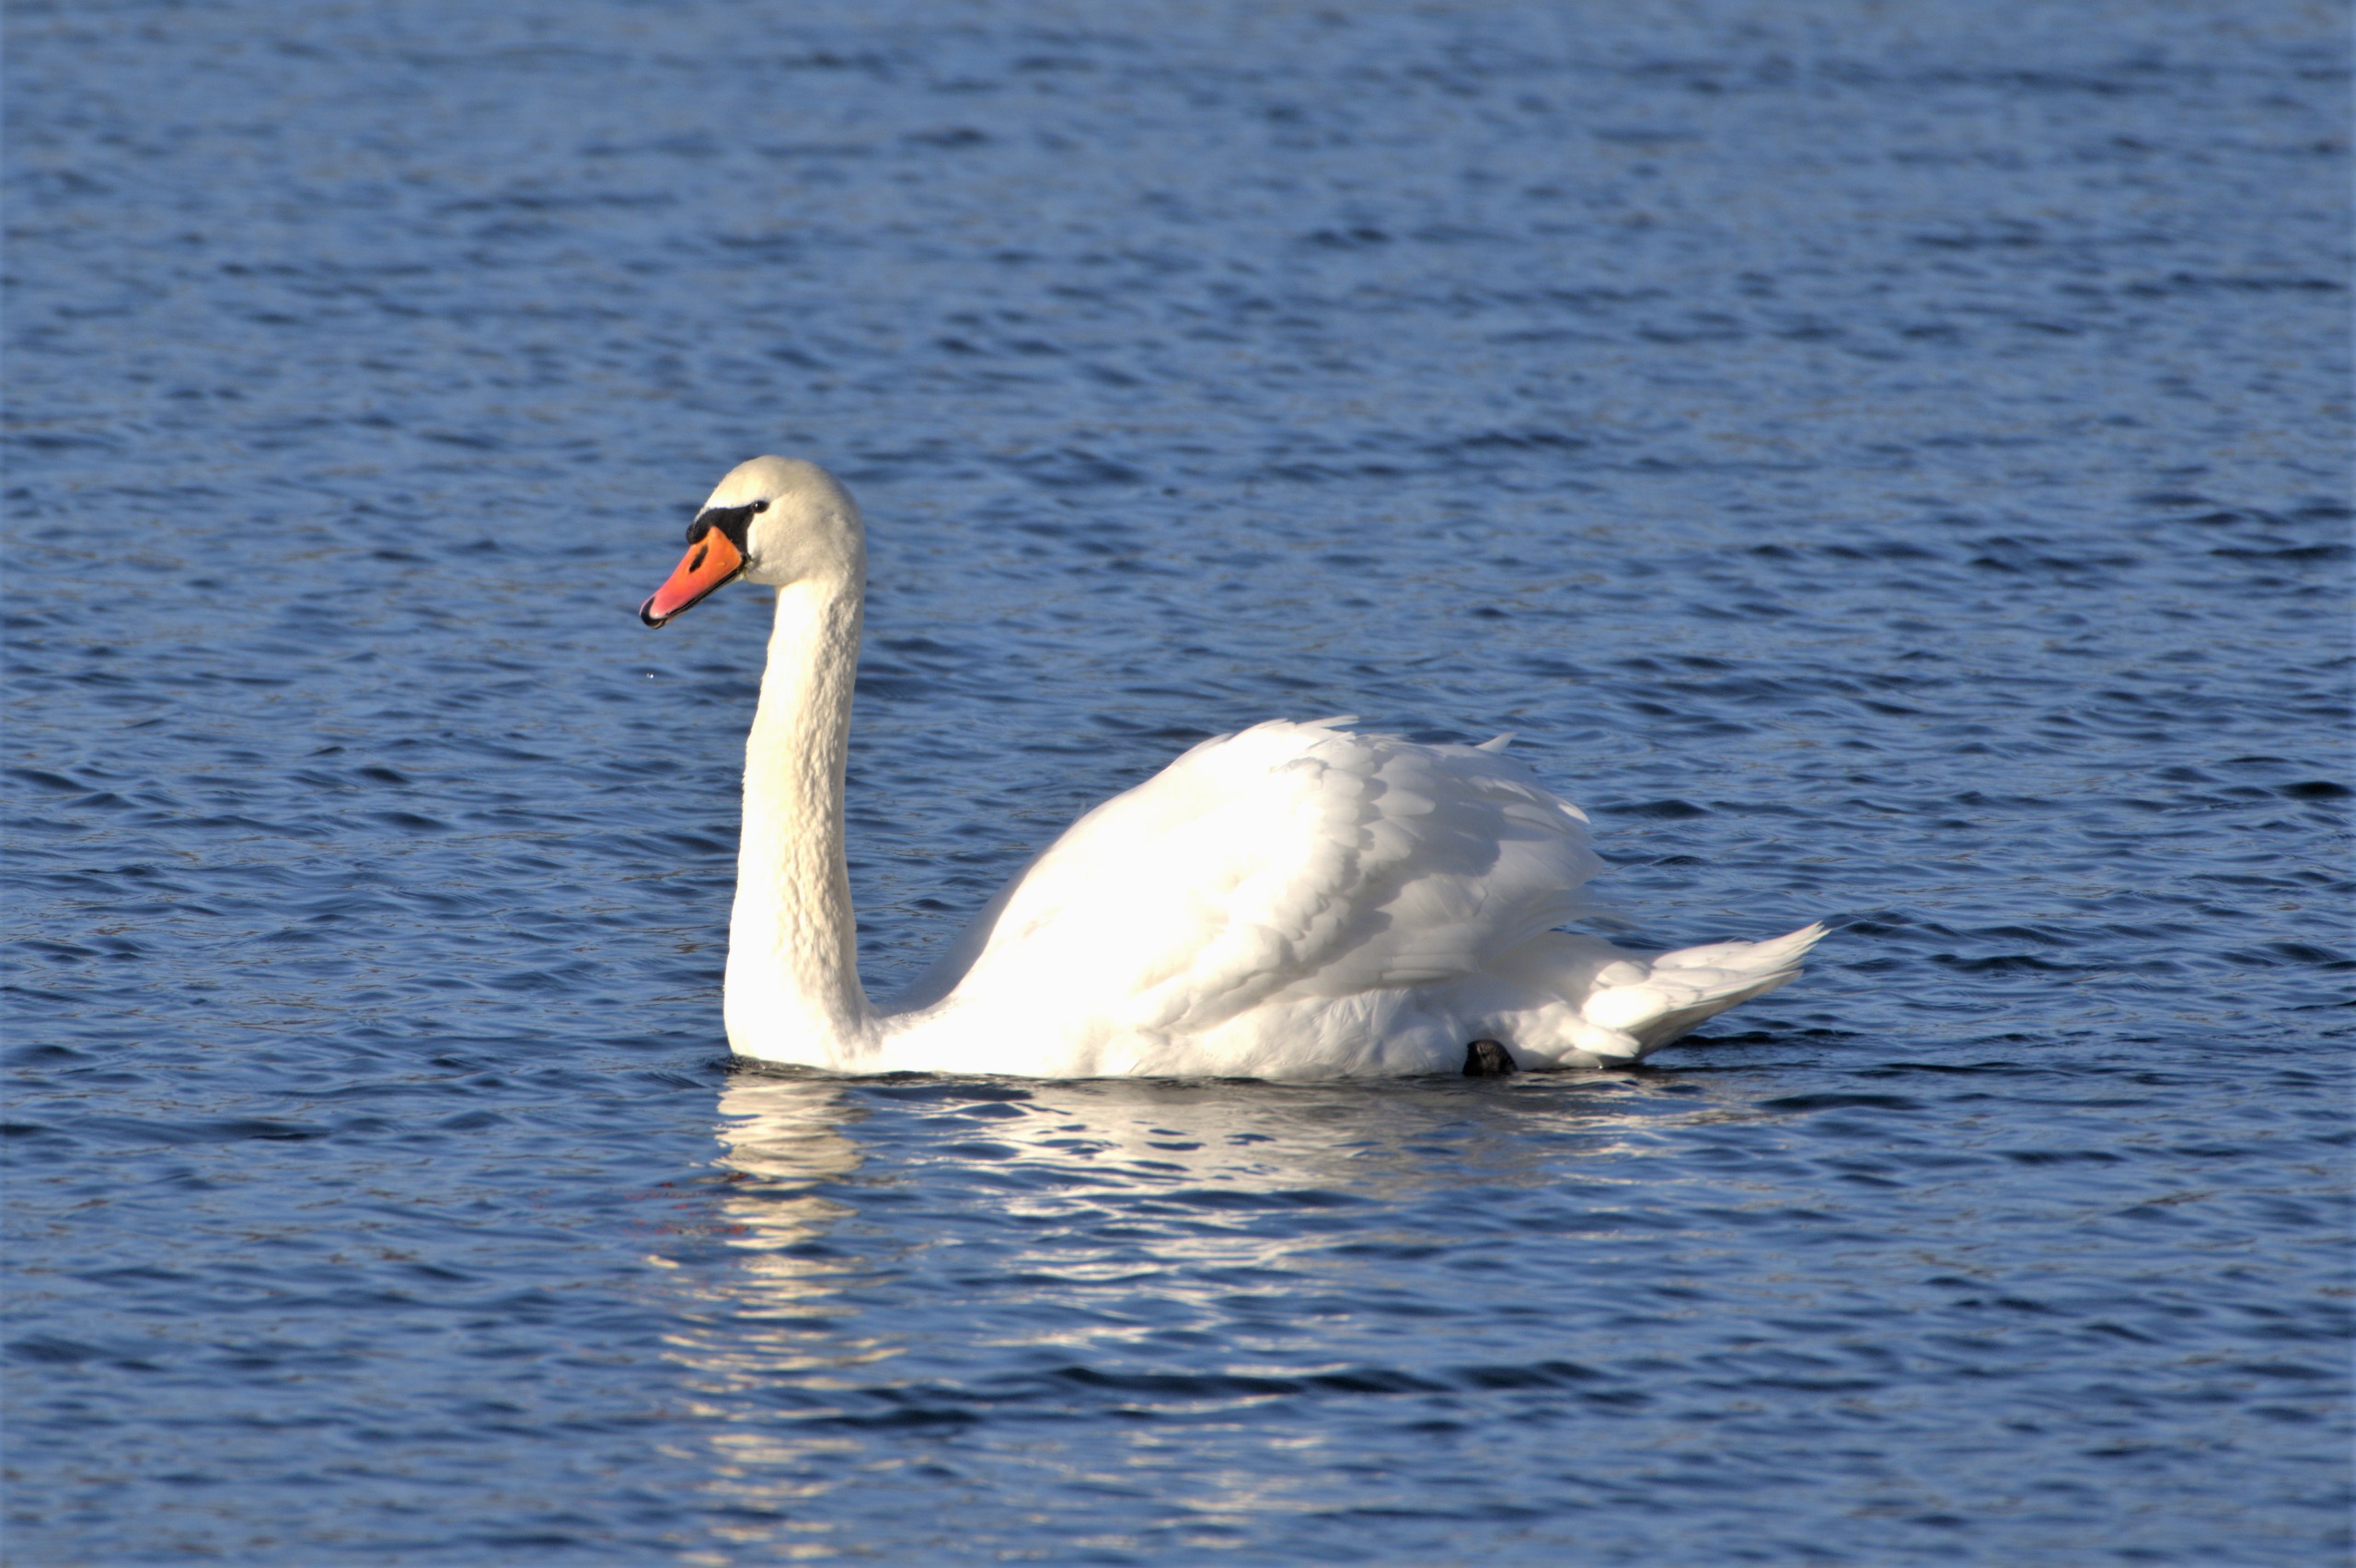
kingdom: Animalia
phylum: Chordata
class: Aves
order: Anseriformes
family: Anatidae
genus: Cygnus
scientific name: Cygnus olor
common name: Knopsvane
